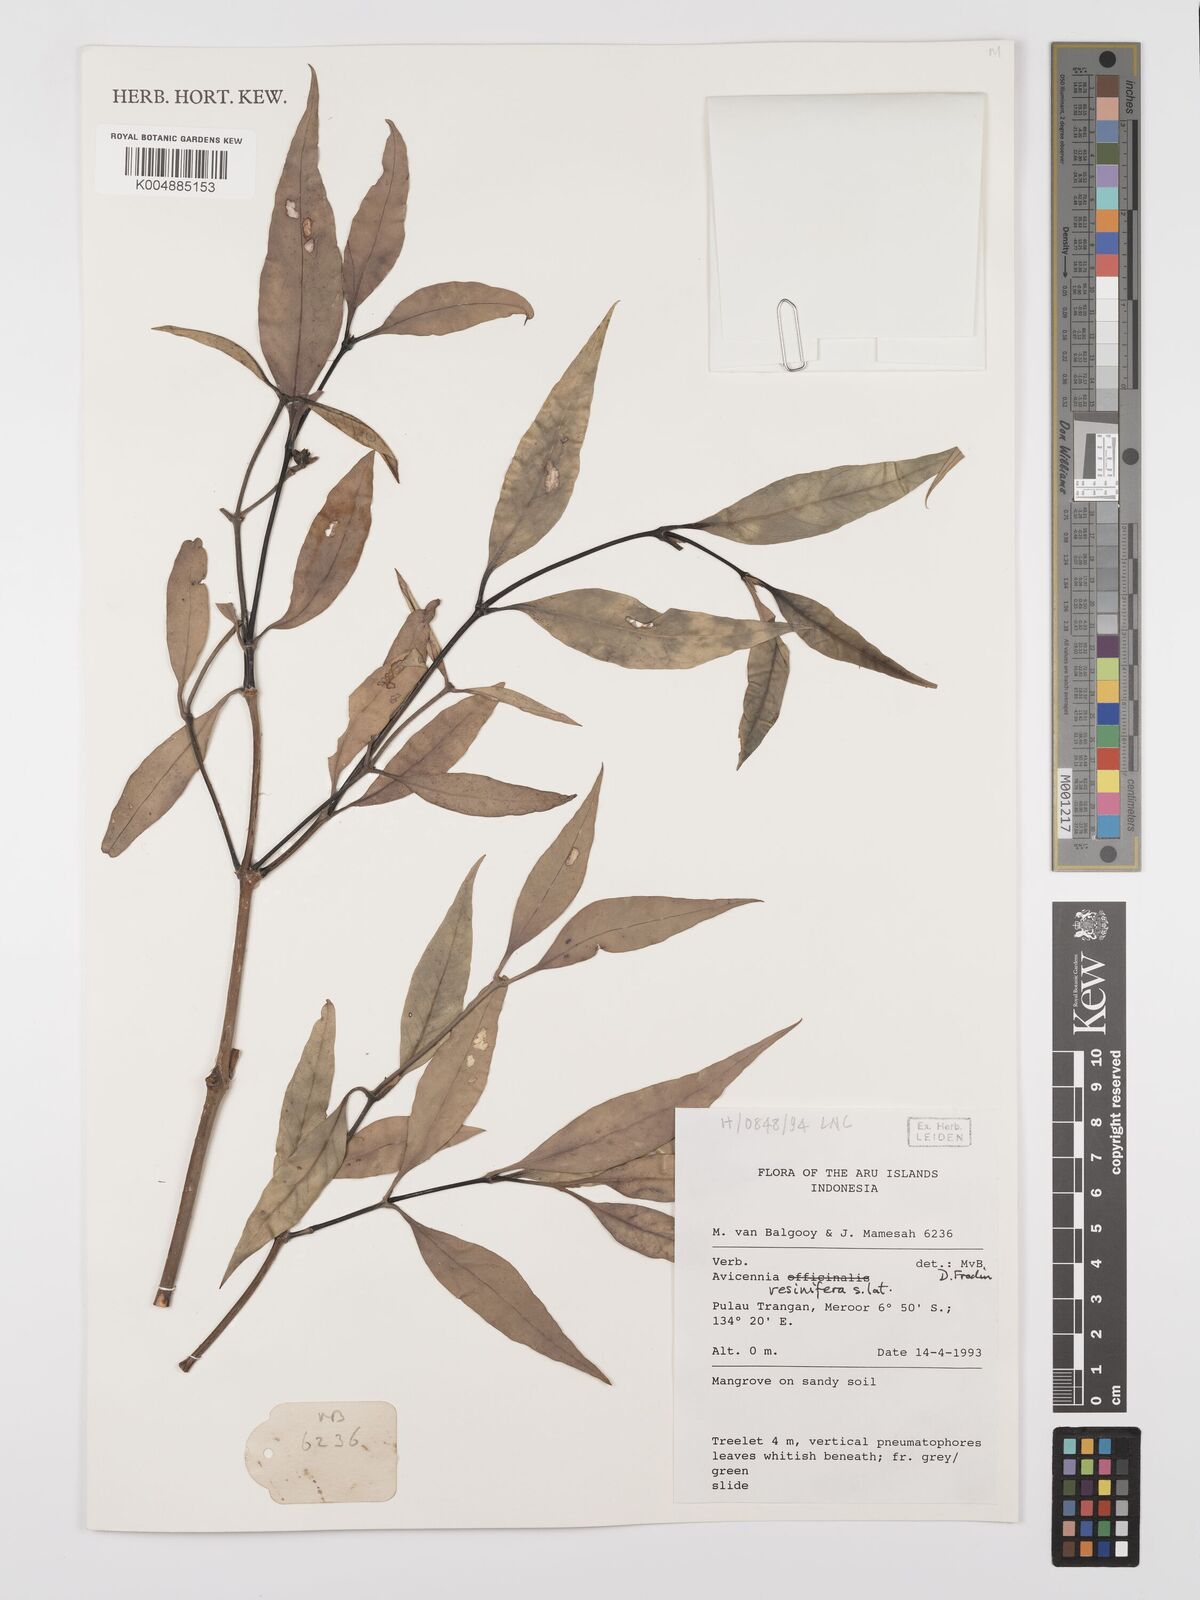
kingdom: Plantae
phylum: Tracheophyta
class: Magnoliopsida
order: Lamiales
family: Acanthaceae
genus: Avicennia
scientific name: Avicennia marina
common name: Gray mangrove
